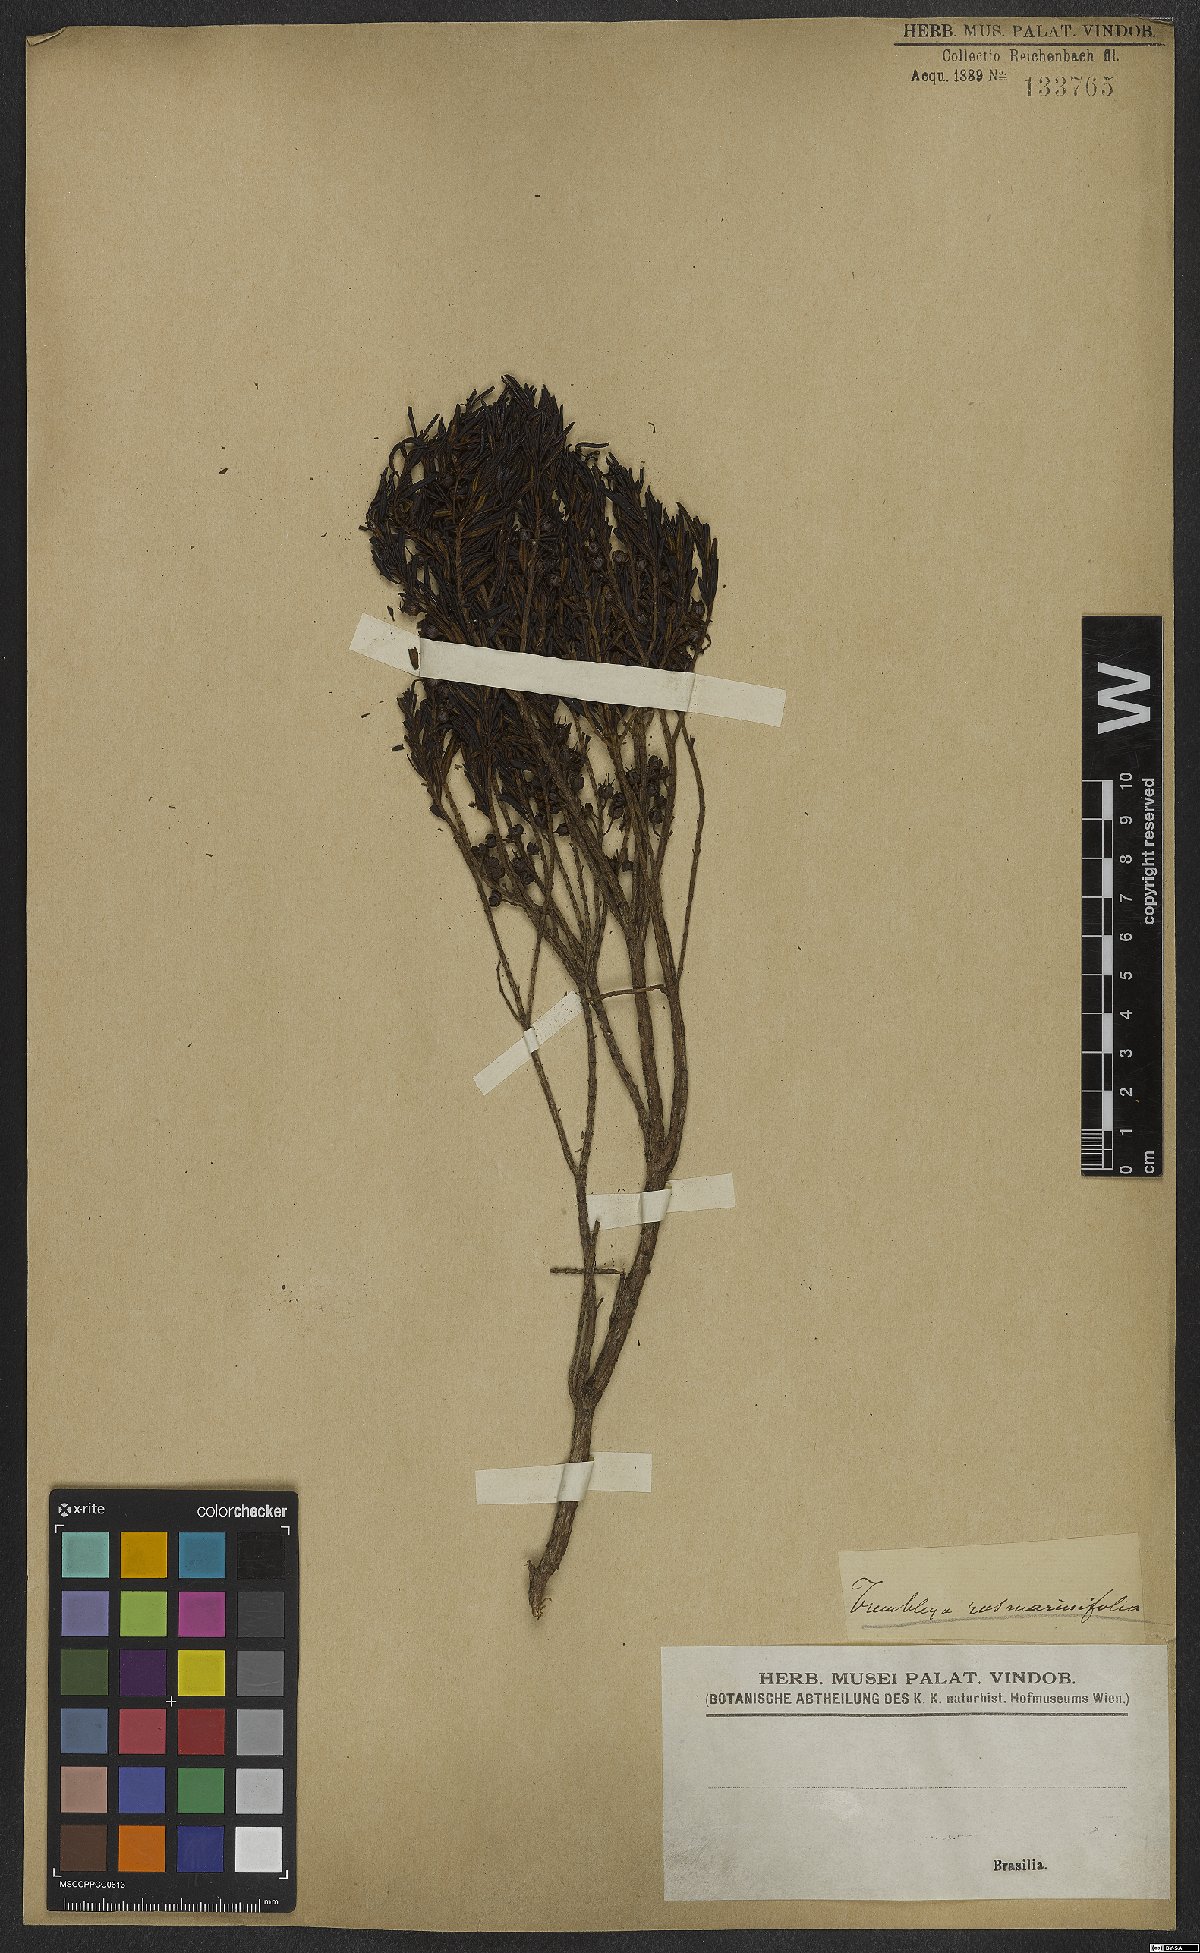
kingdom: Plantae
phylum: Tracheophyta
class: Magnoliopsida
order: Myrtales
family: Melastomataceae
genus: Microlicia
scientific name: Microlicia rosmarinoides
